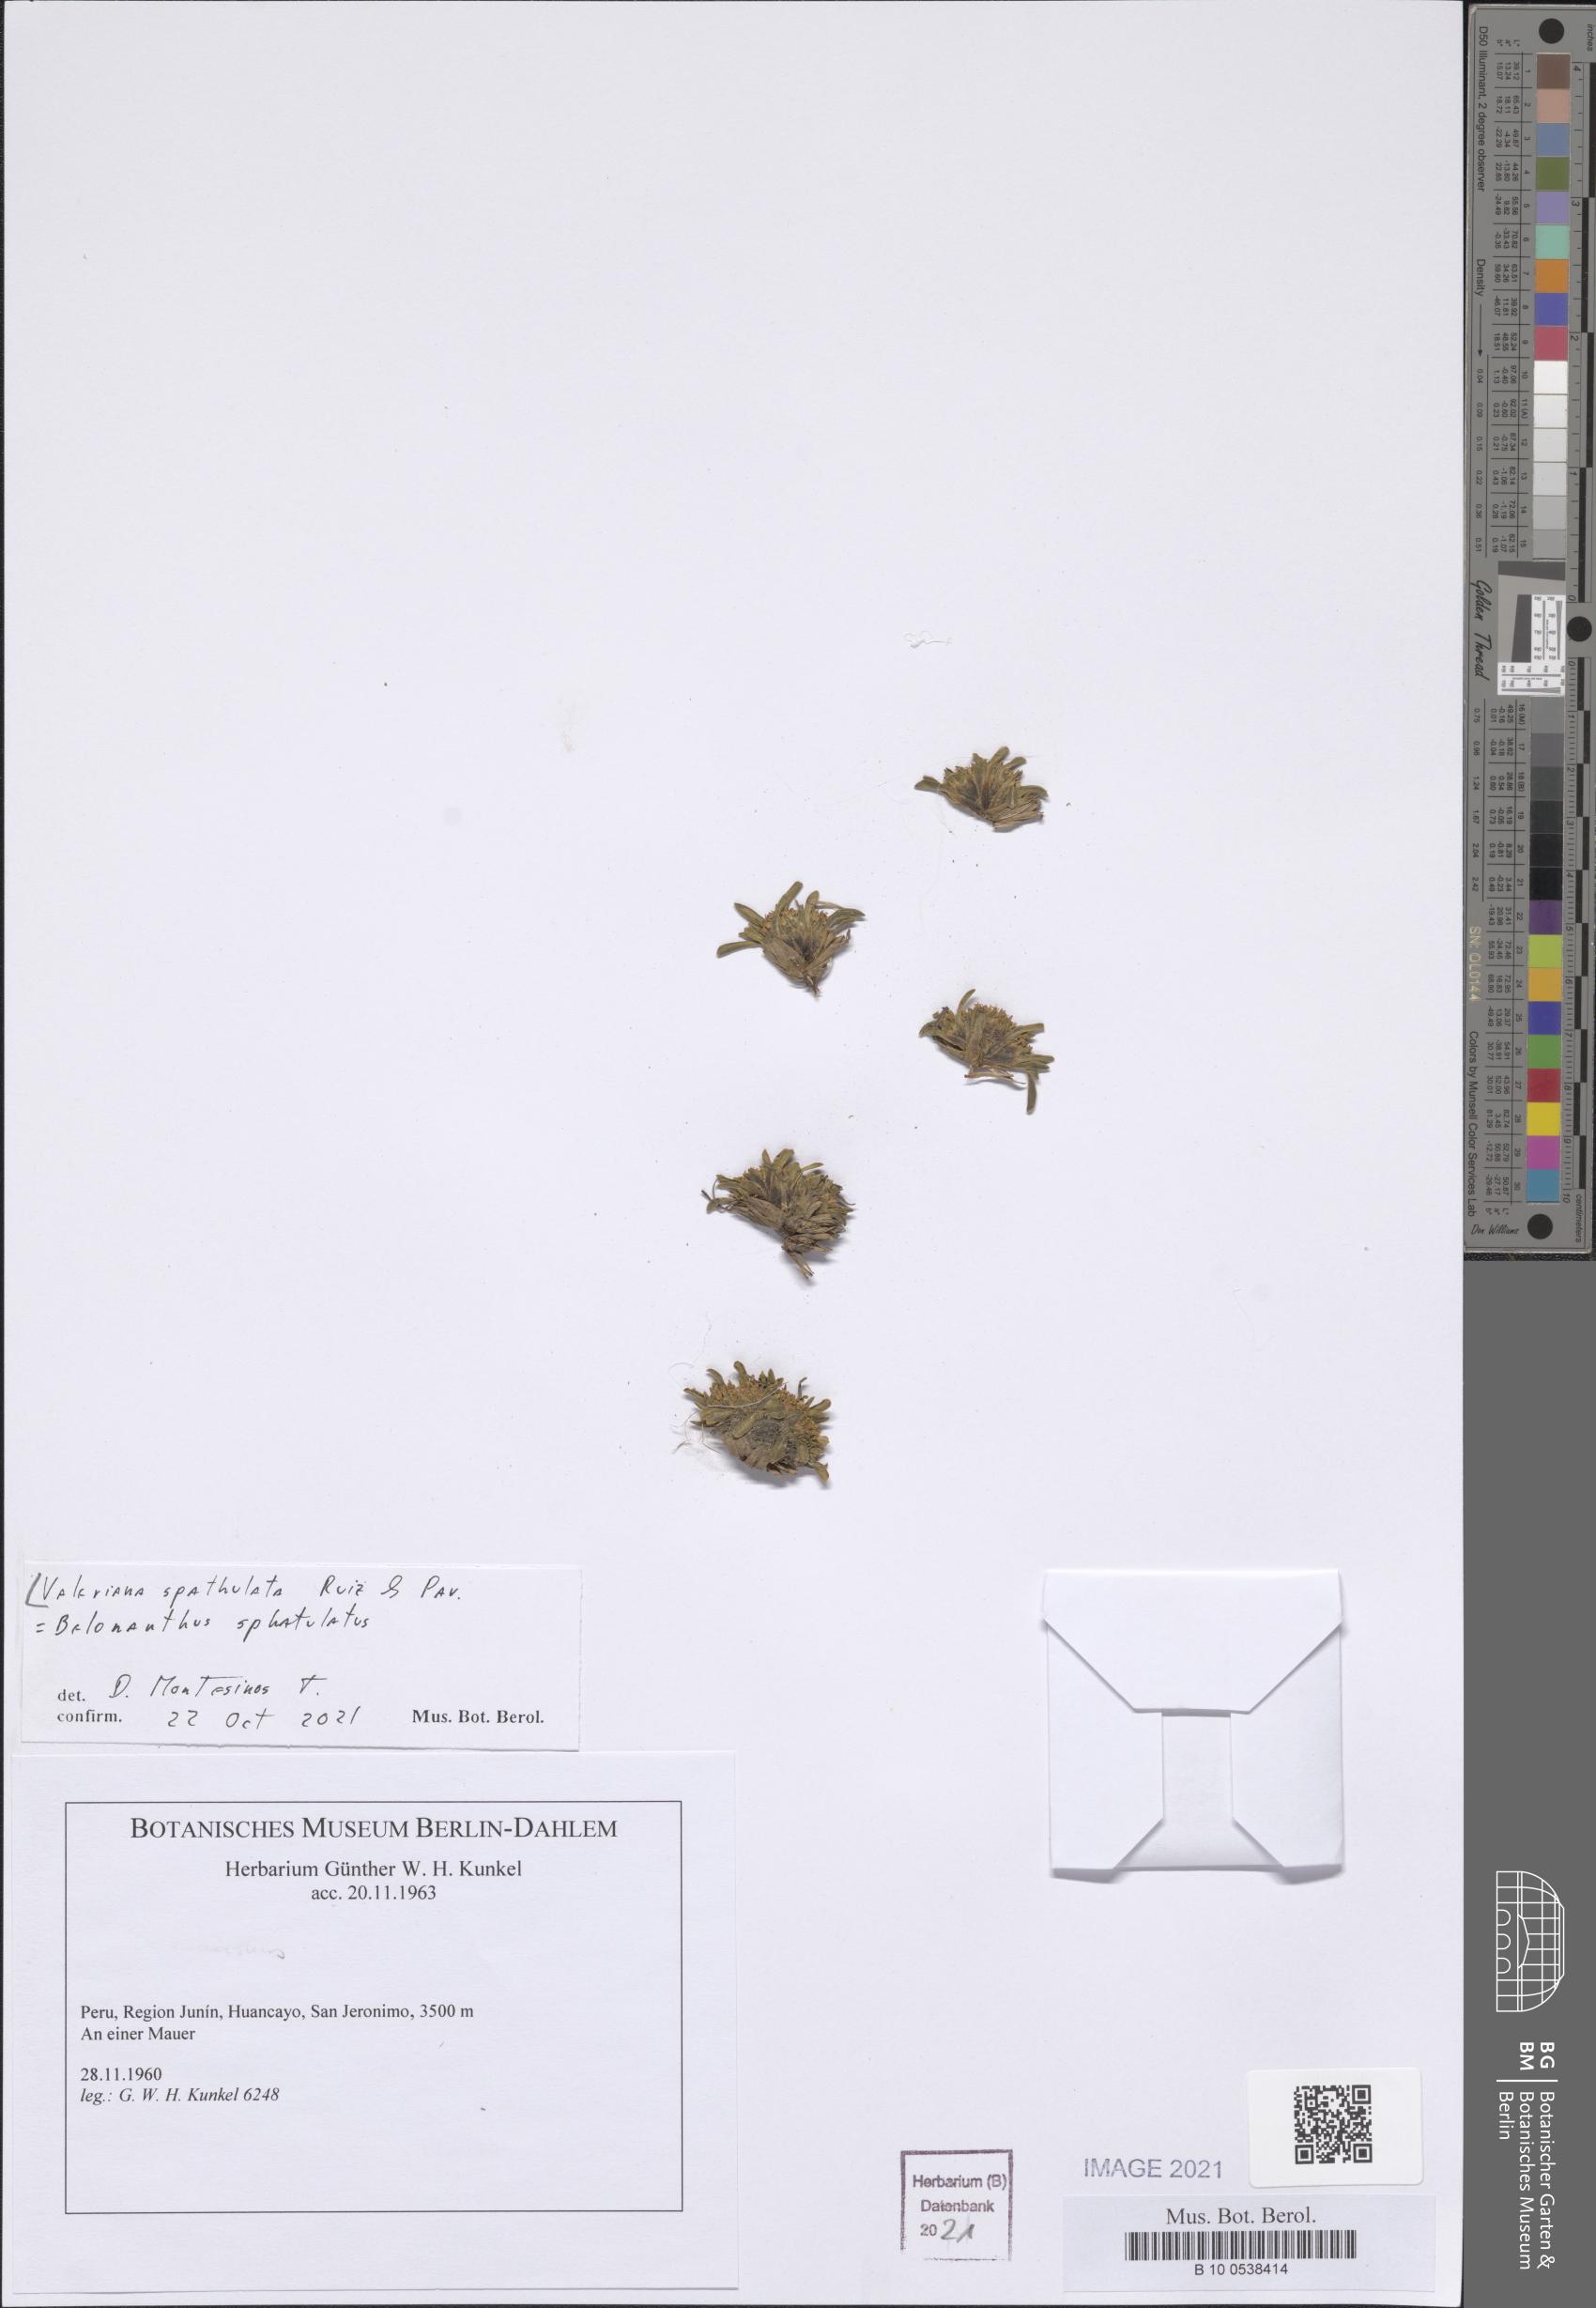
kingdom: Plantae
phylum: Tracheophyta
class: Magnoliopsida
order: Dipsacales
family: Caprifoliaceae
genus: Valeriana
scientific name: Valeriana spathulata
